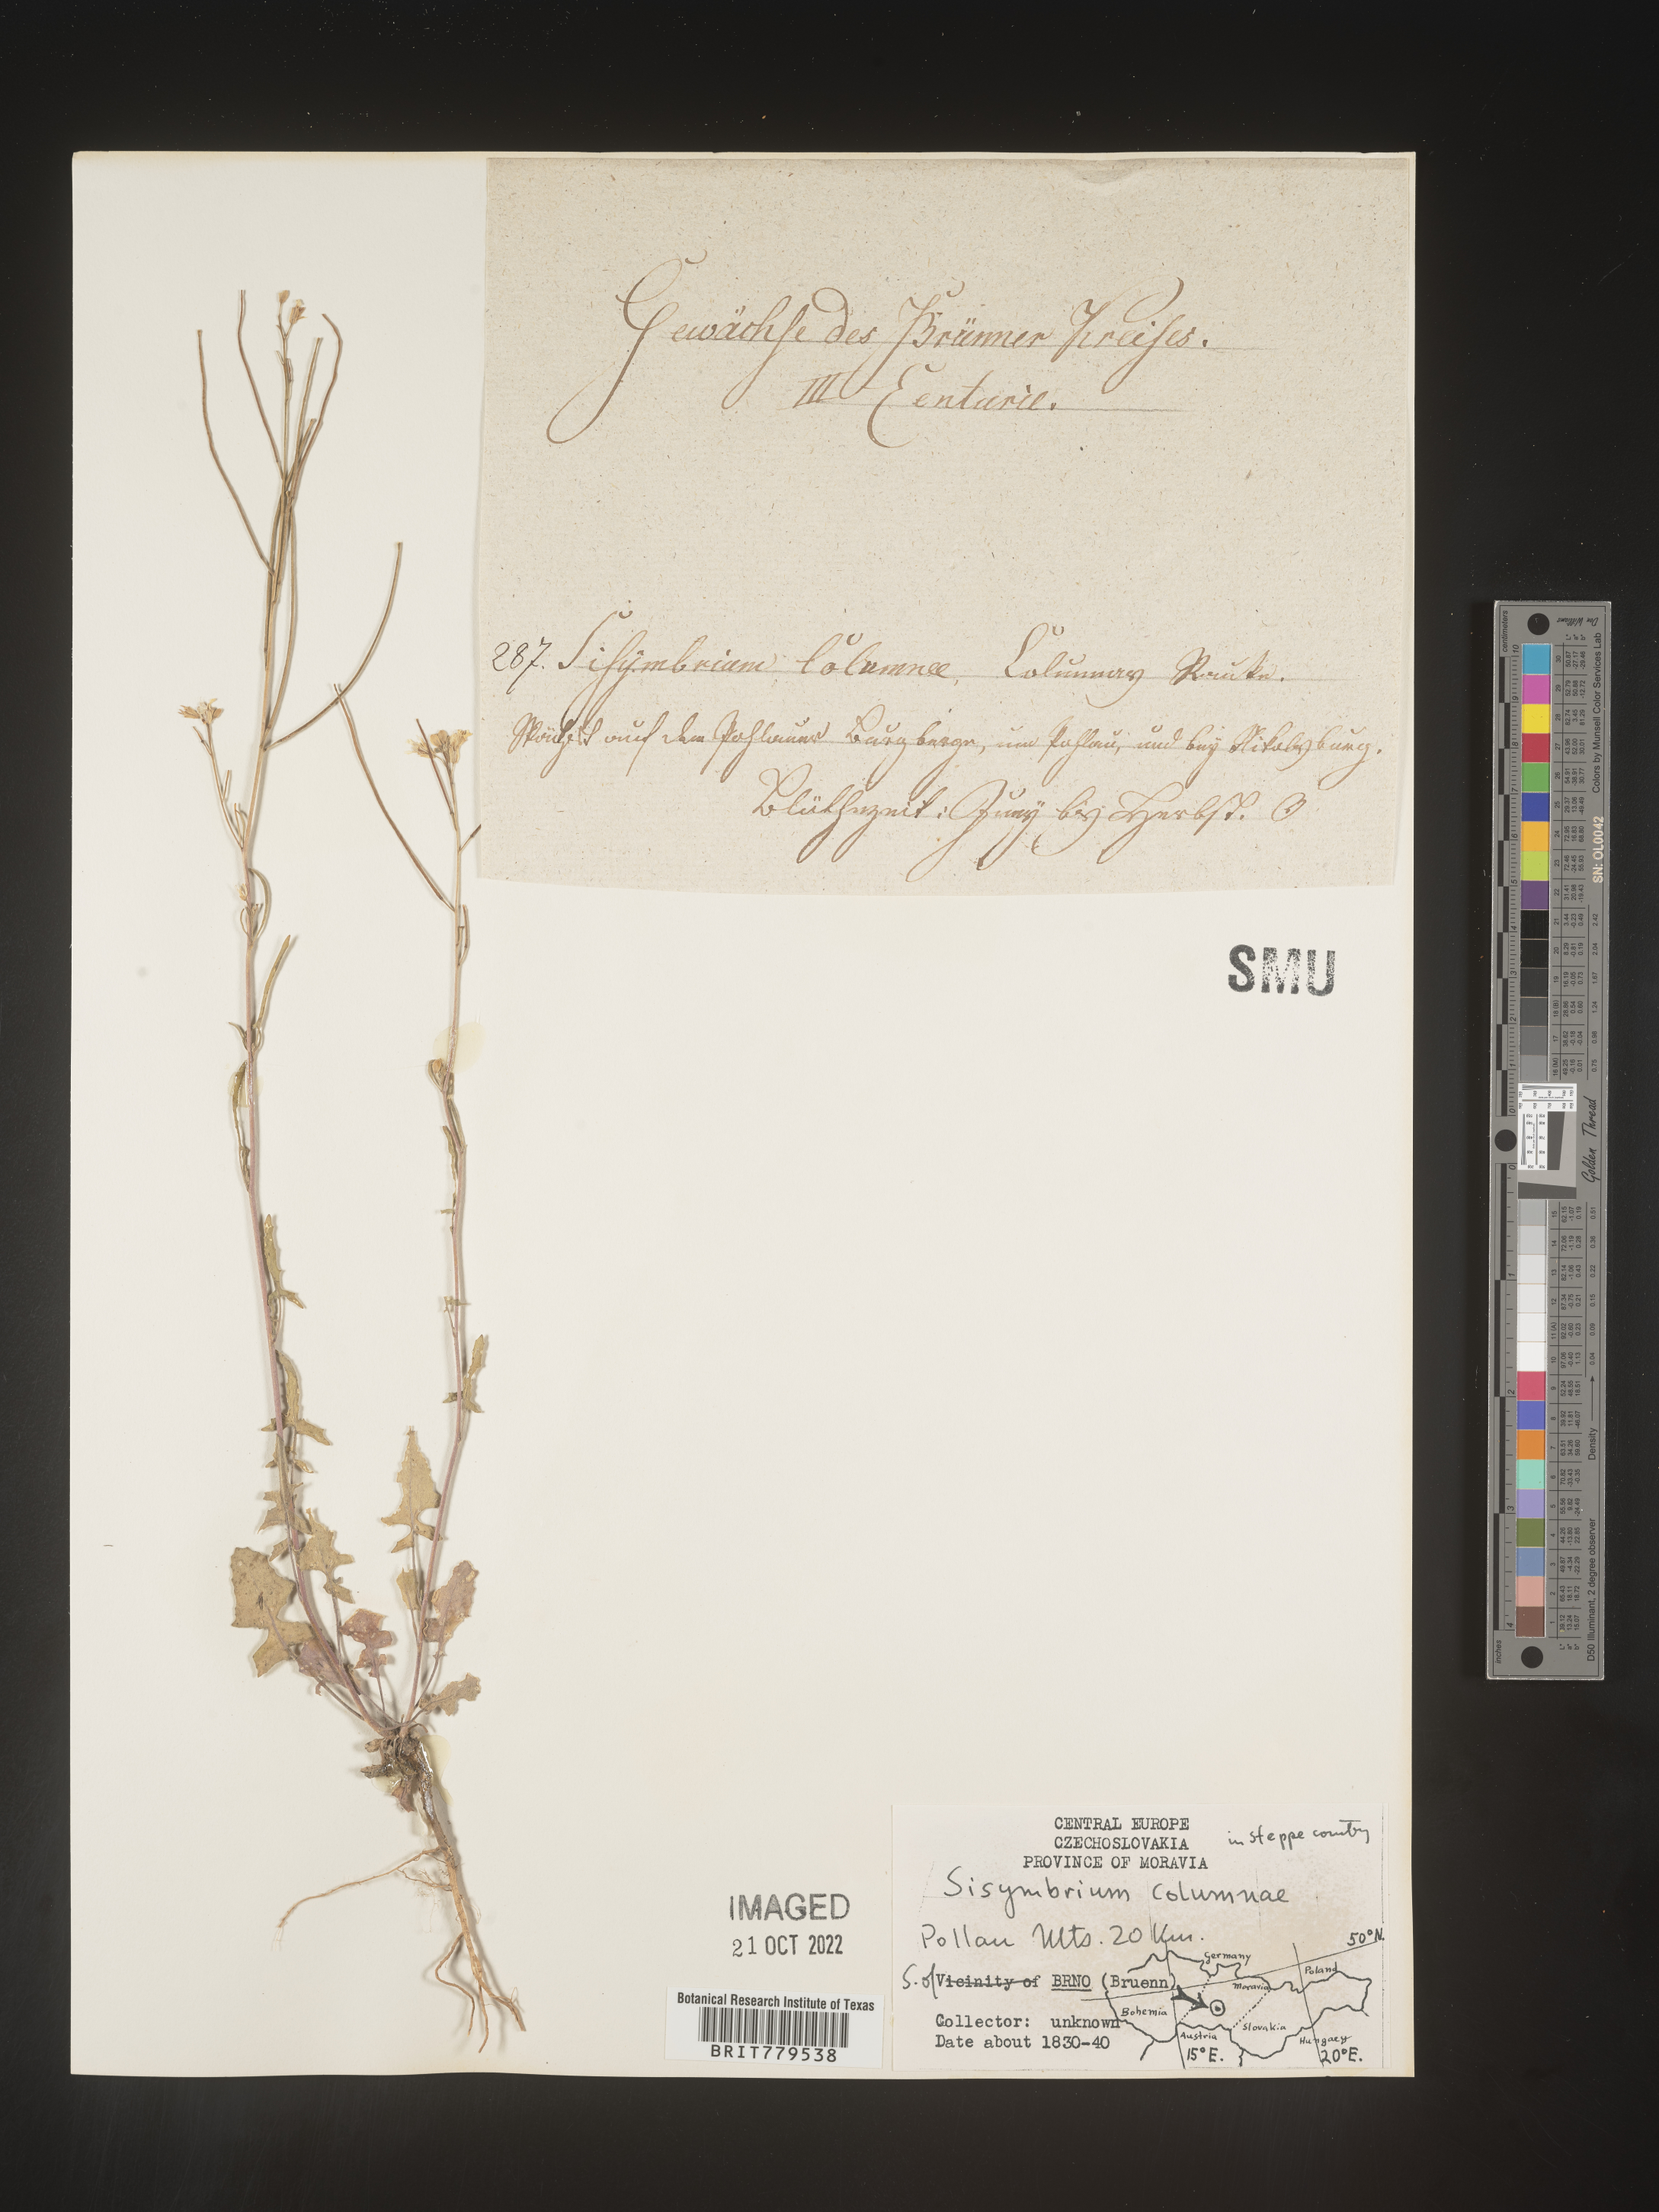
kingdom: Plantae
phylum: Tracheophyta
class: Magnoliopsida
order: Brassicales
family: Brassicaceae
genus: Sisymbrium
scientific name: Sisymbrium
